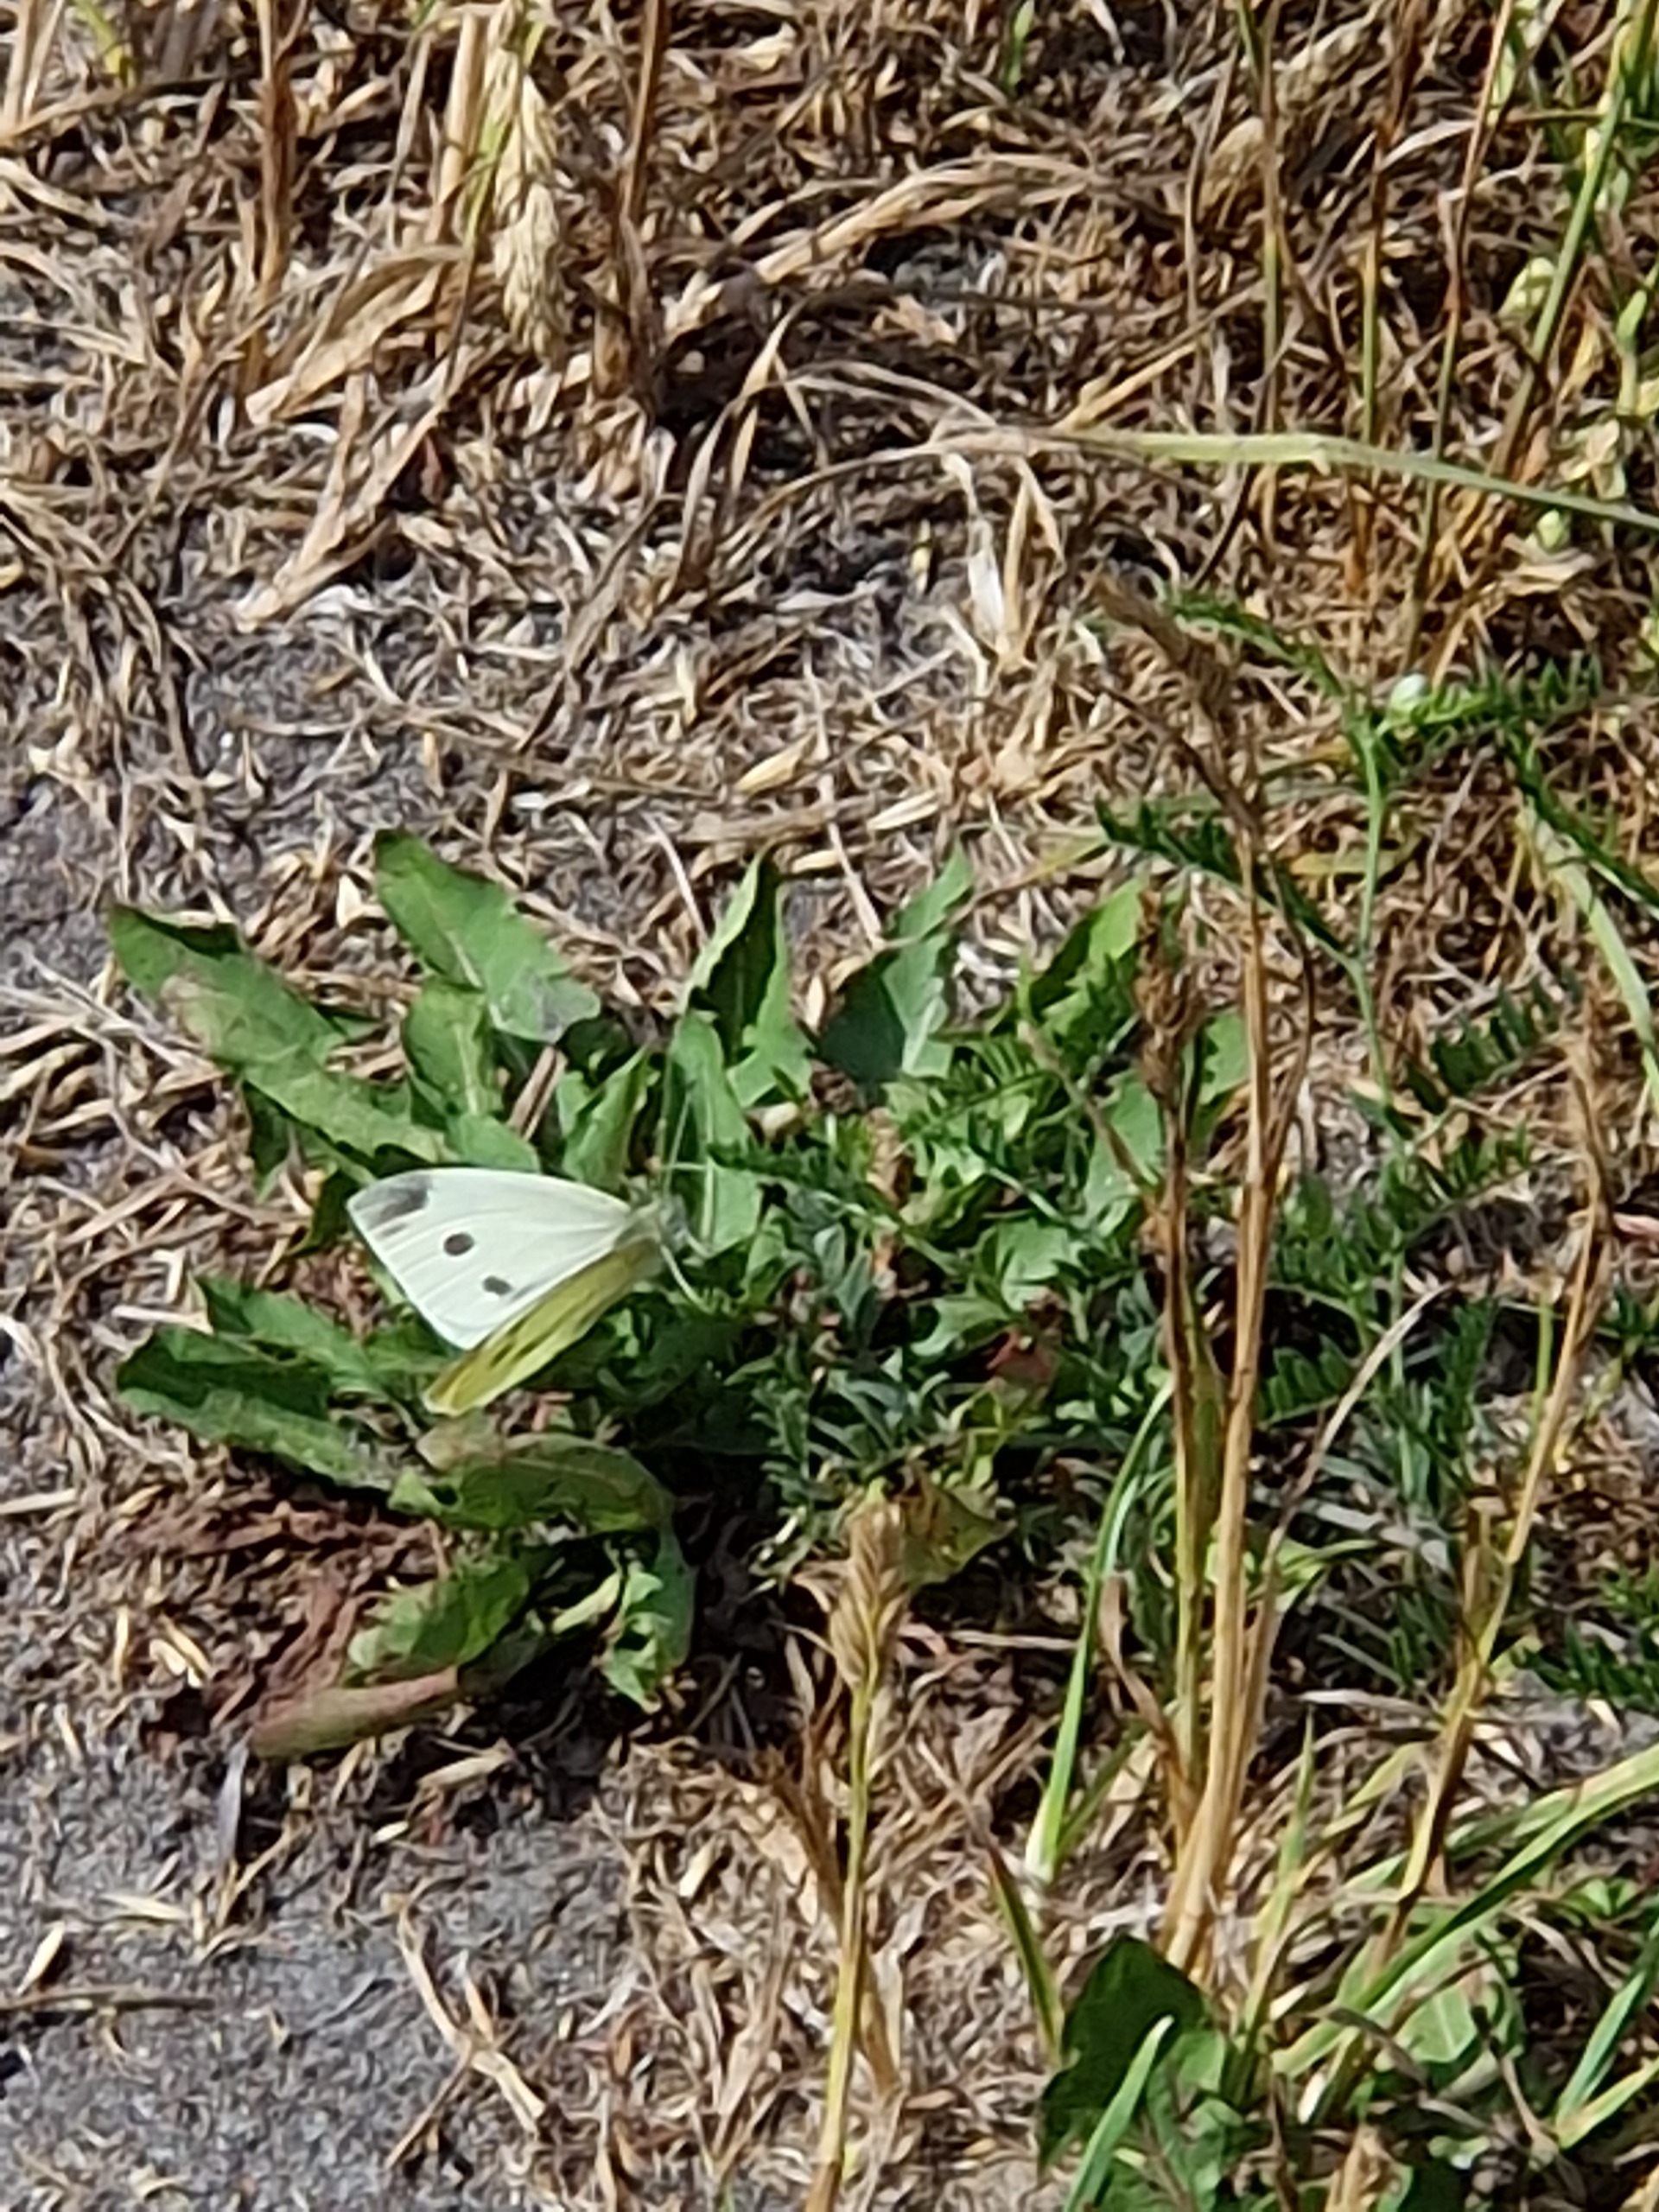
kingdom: Animalia
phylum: Arthropoda
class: Insecta
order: Lepidoptera
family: Pieridae
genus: Pieris
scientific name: Pieris rapae
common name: Lille kålsommerfugl
